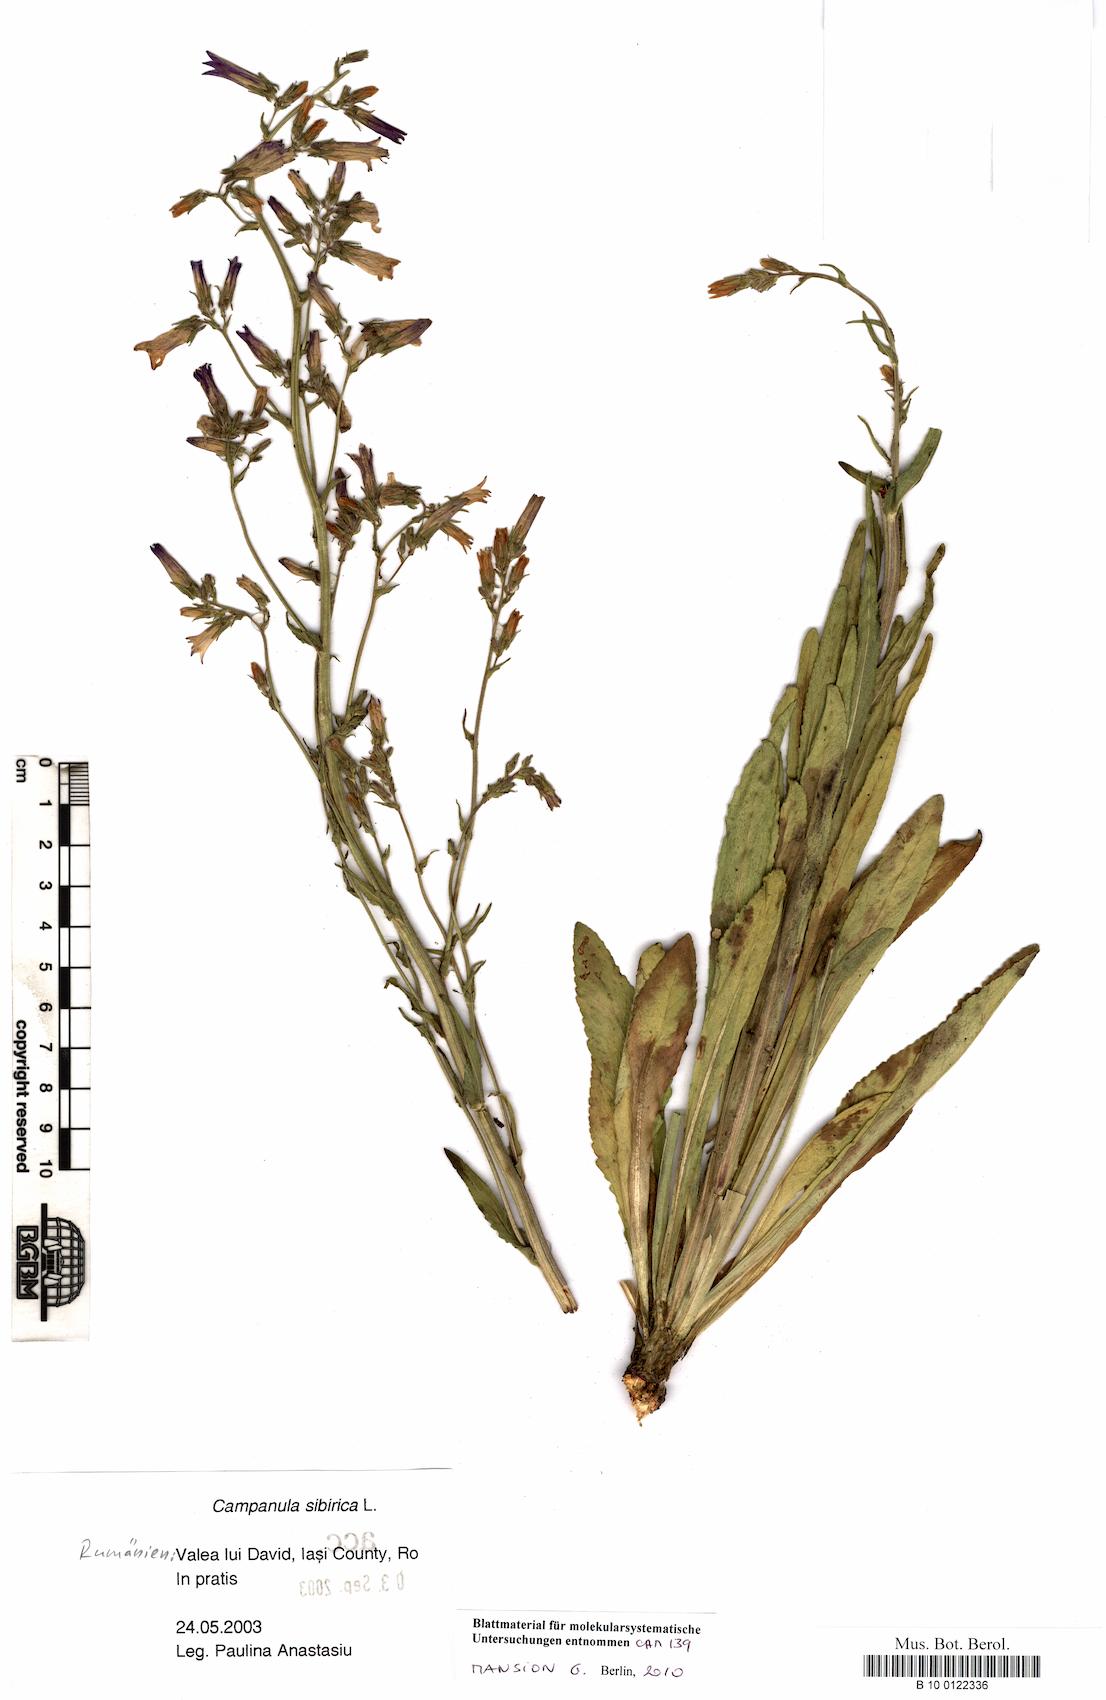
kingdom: Plantae
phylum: Tracheophyta
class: Magnoliopsida
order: Asterales
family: Campanulaceae
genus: Campanula
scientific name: Campanula sibirica
